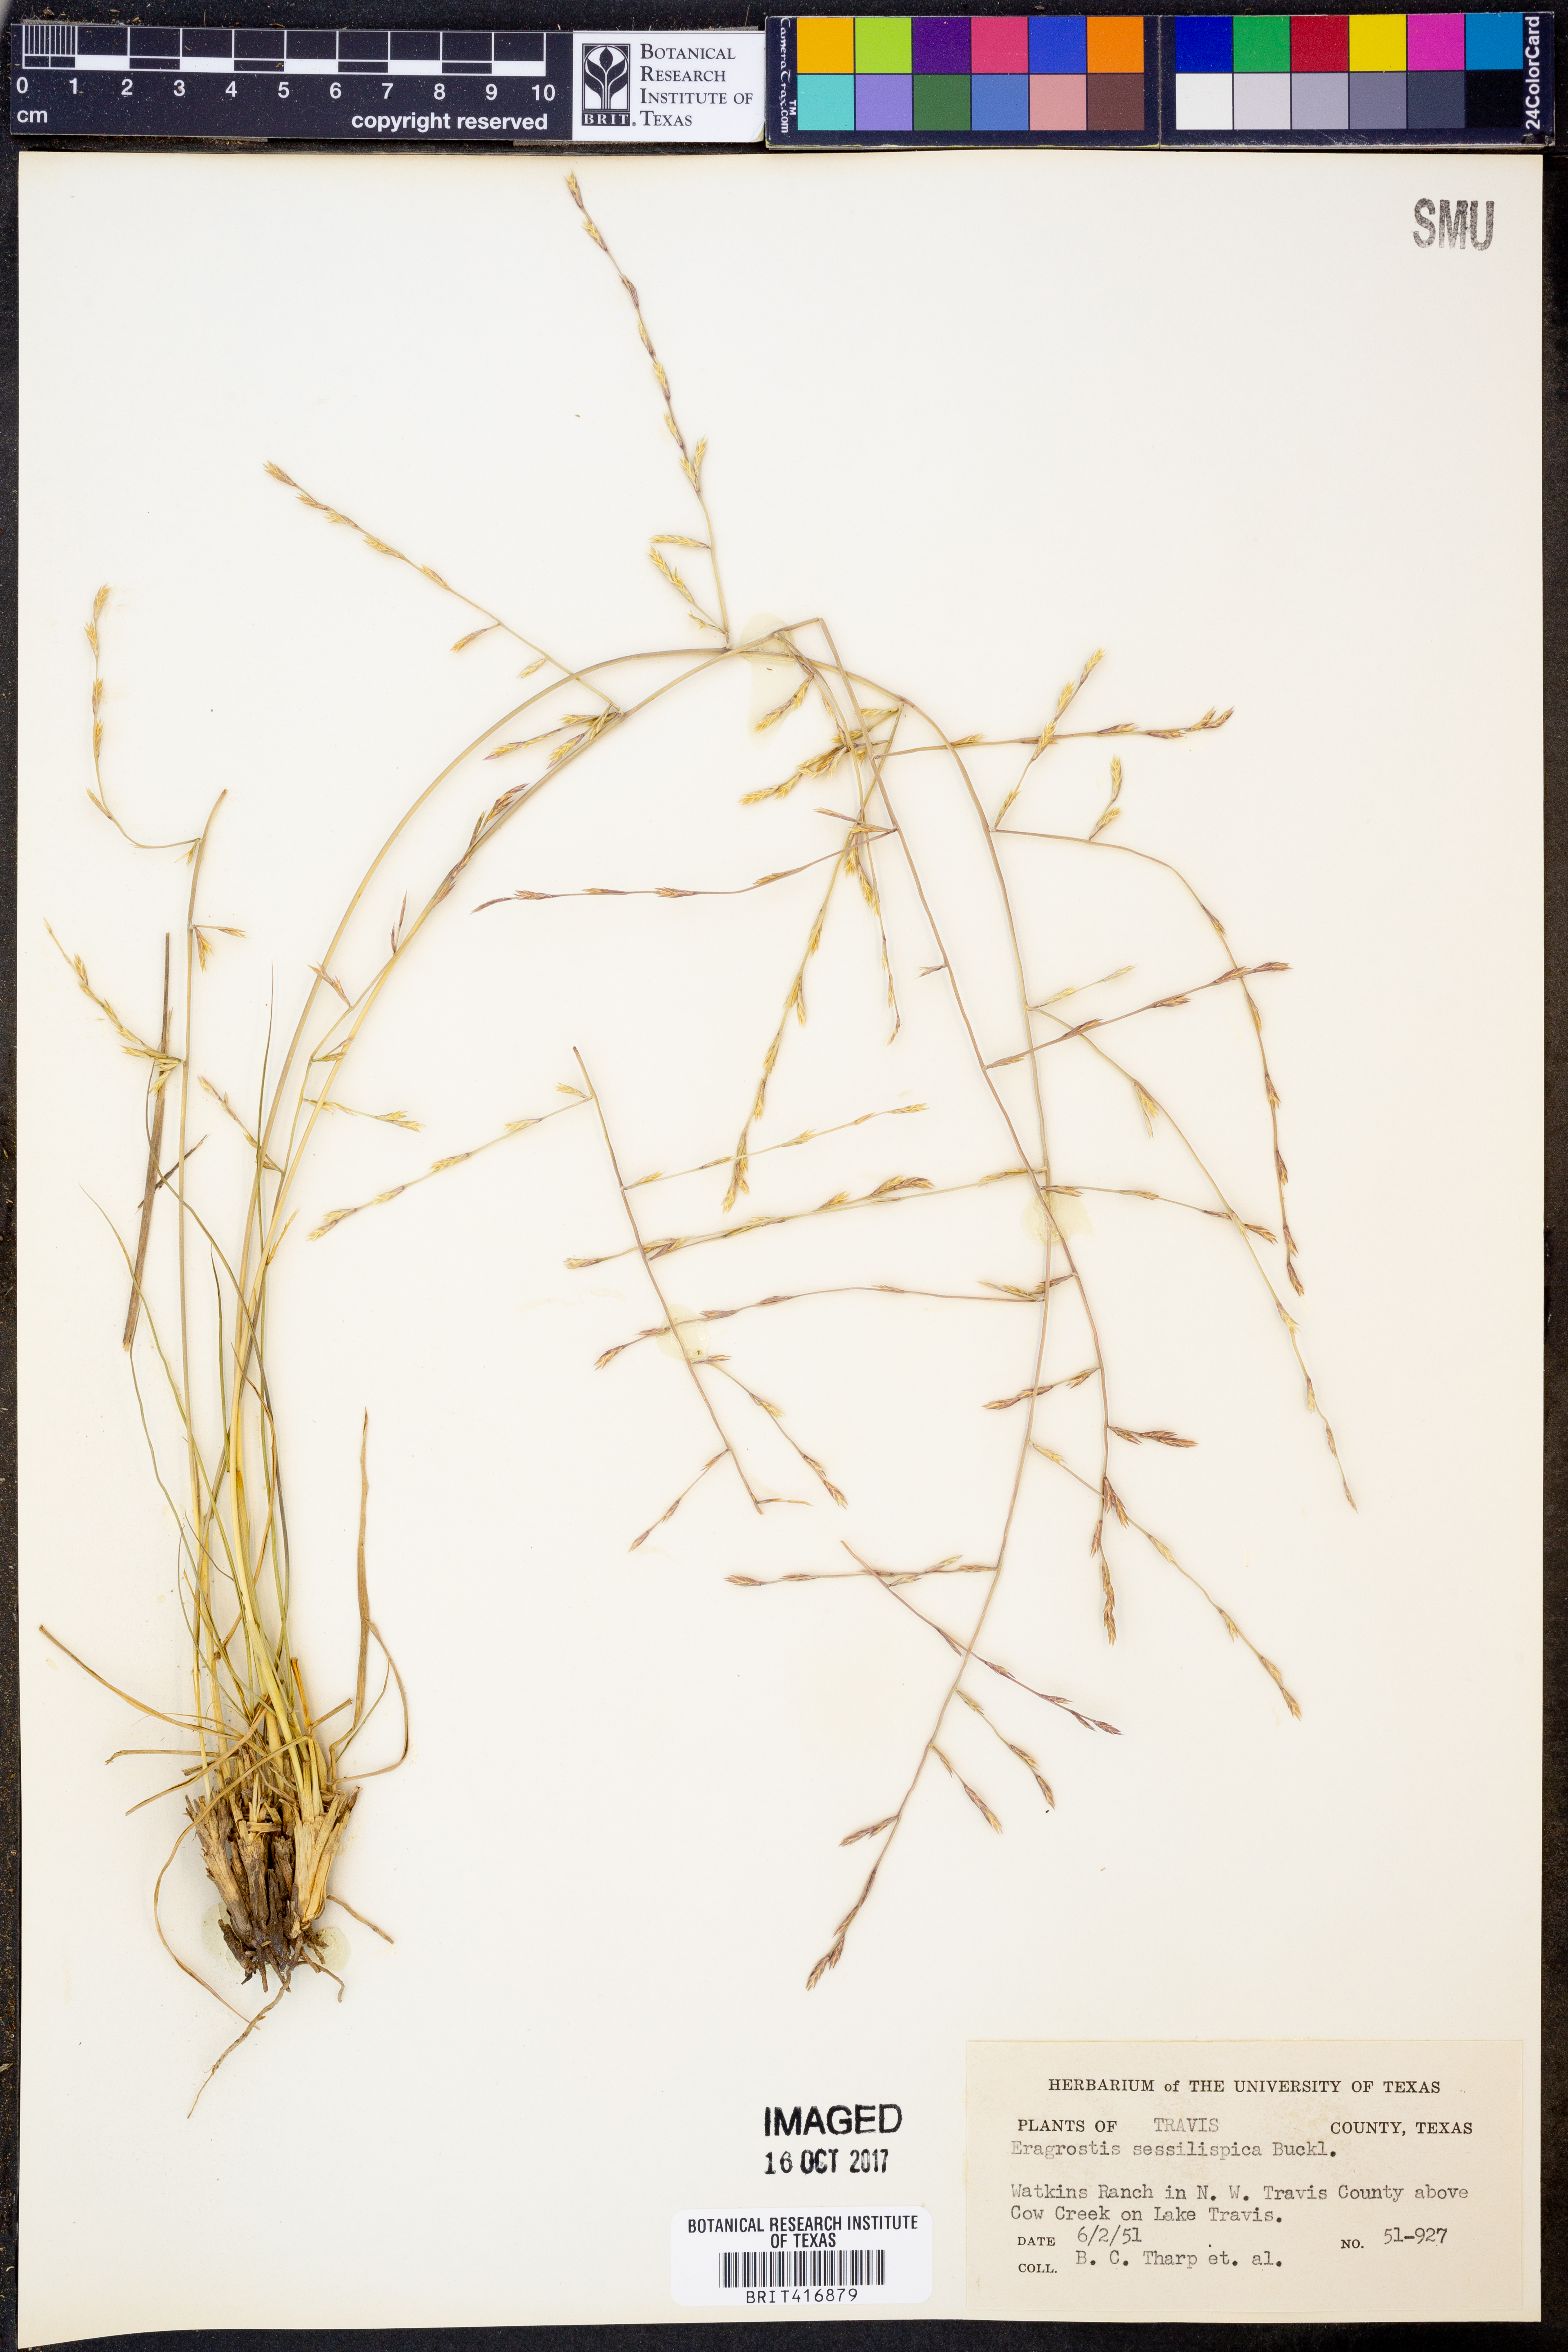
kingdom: Plantae
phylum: Tracheophyta
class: Liliopsida
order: Poales
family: Poaceae
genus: Eragrostis
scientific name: Eragrostis sessilispica
